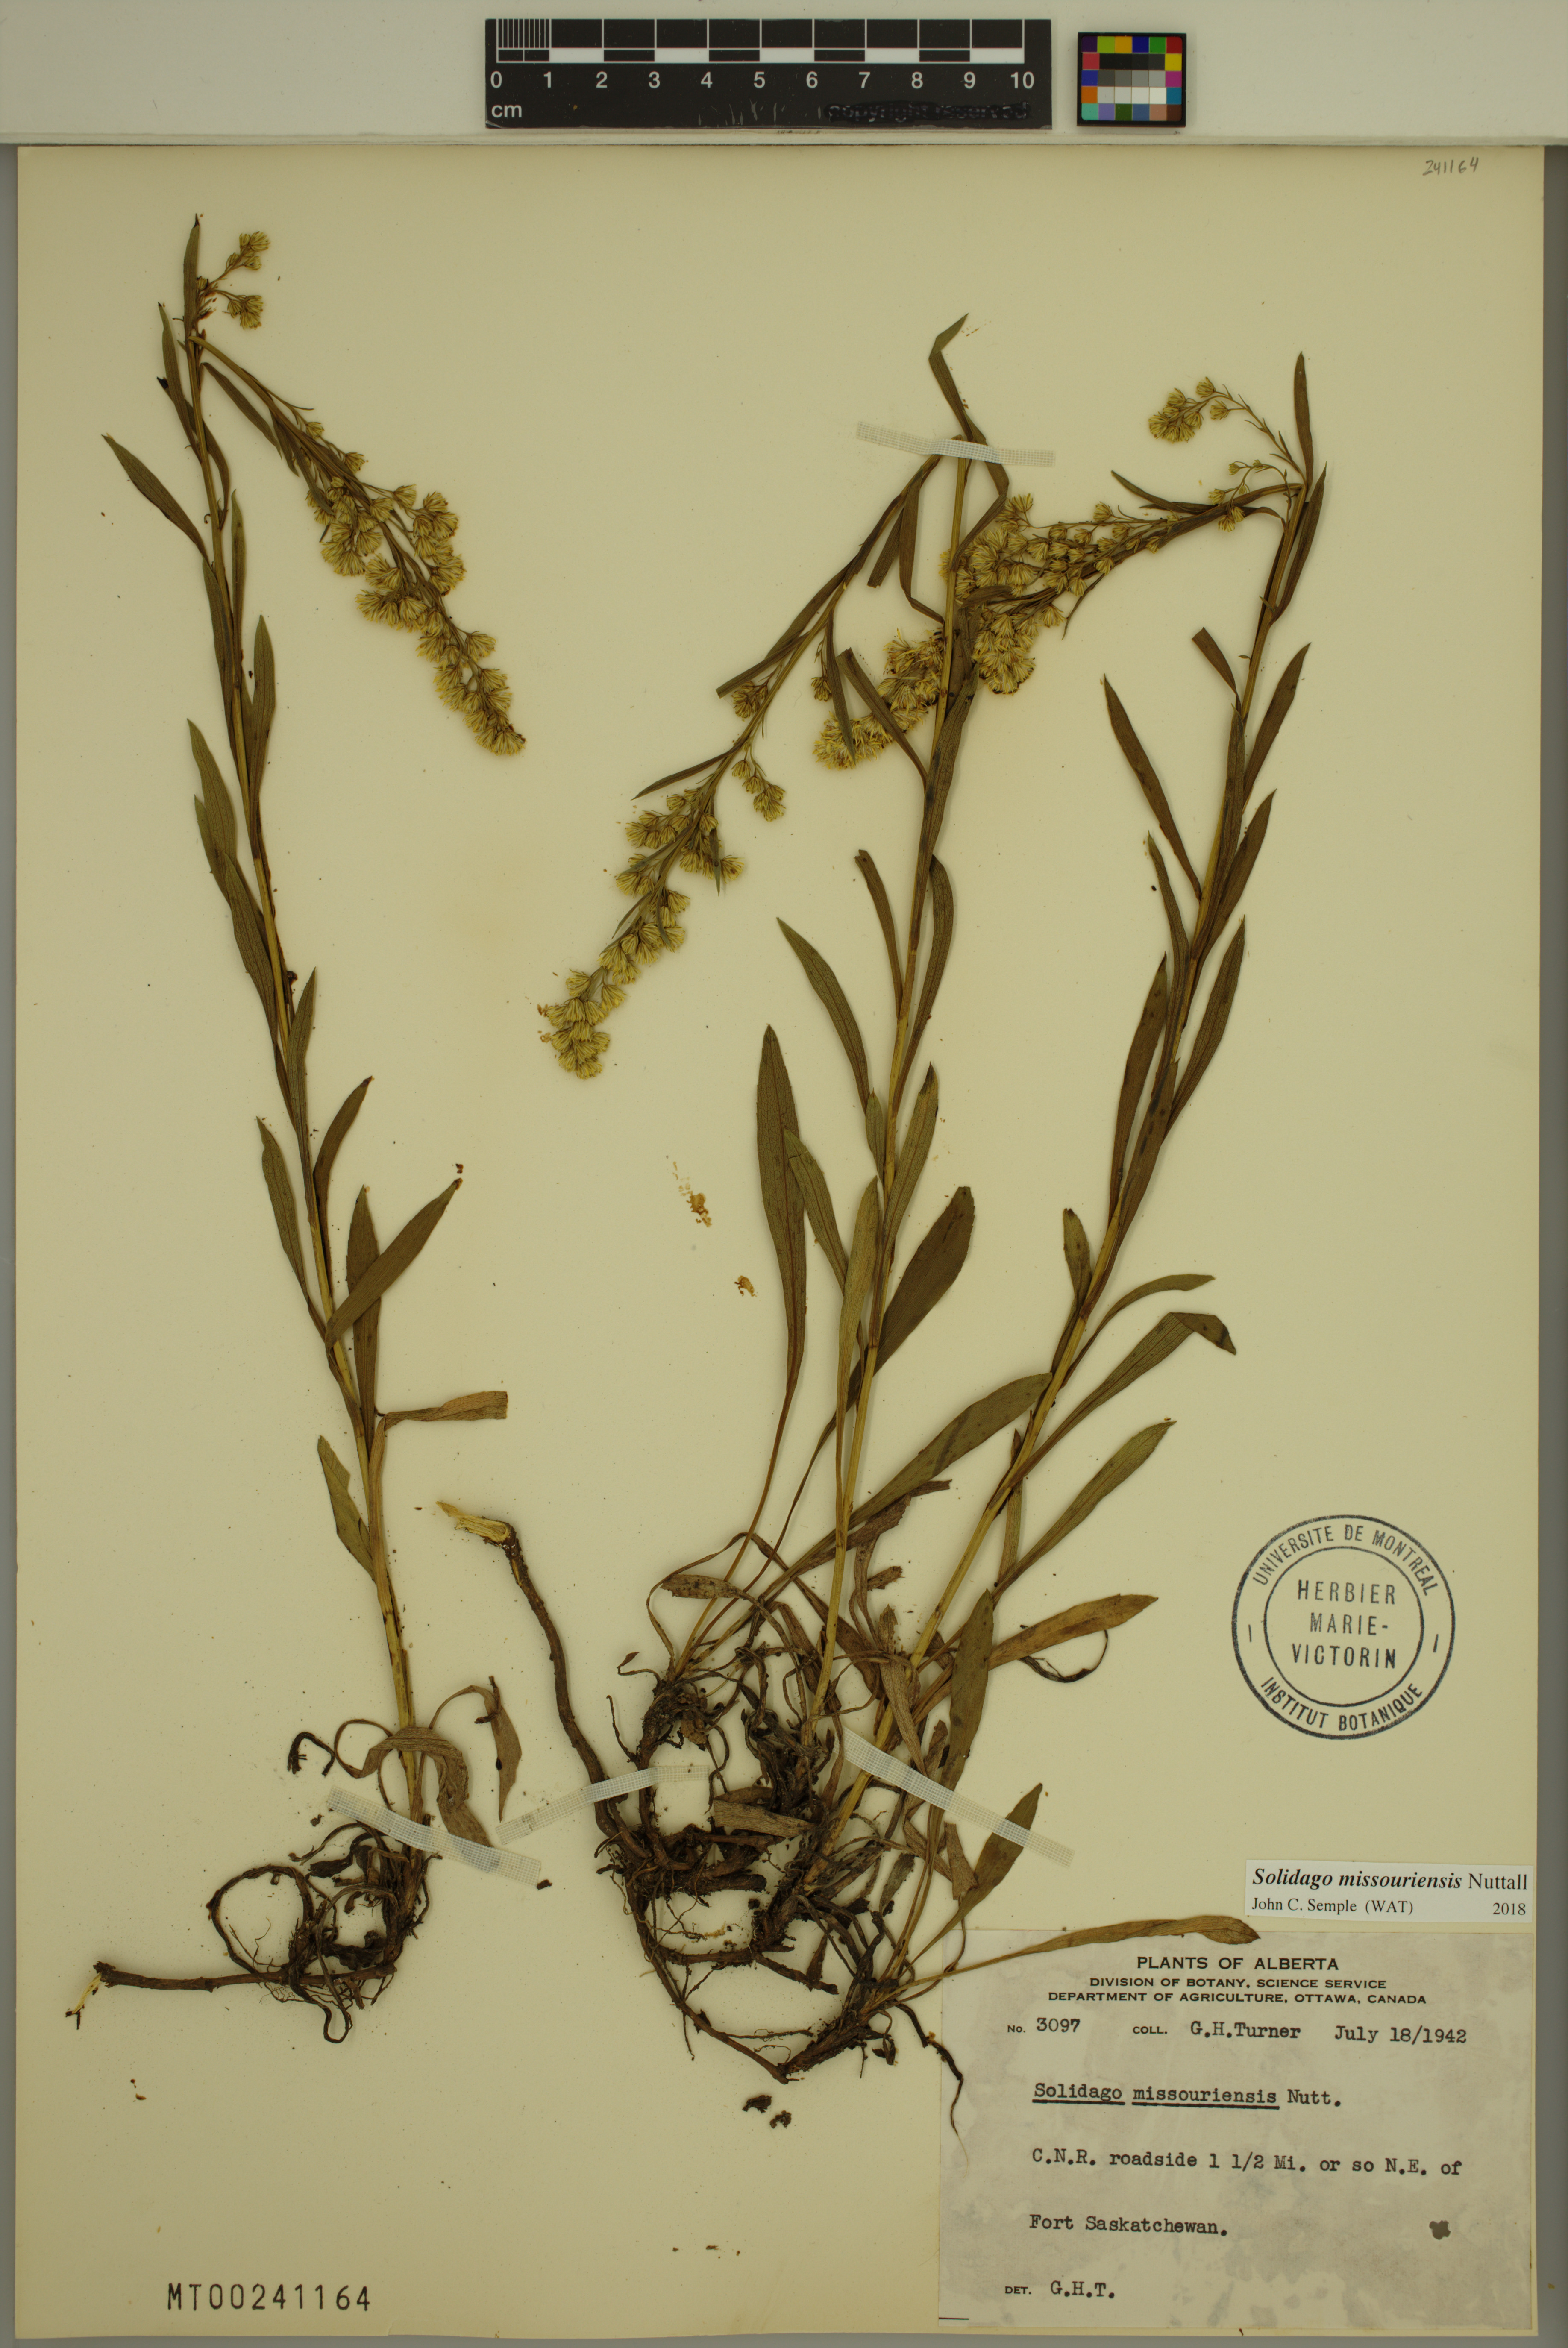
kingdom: Plantae
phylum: Tracheophyta
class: Magnoliopsida
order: Asterales
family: Asteraceae
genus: Solidago
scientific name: Solidago missouriensis
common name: Prairie goldenrod
